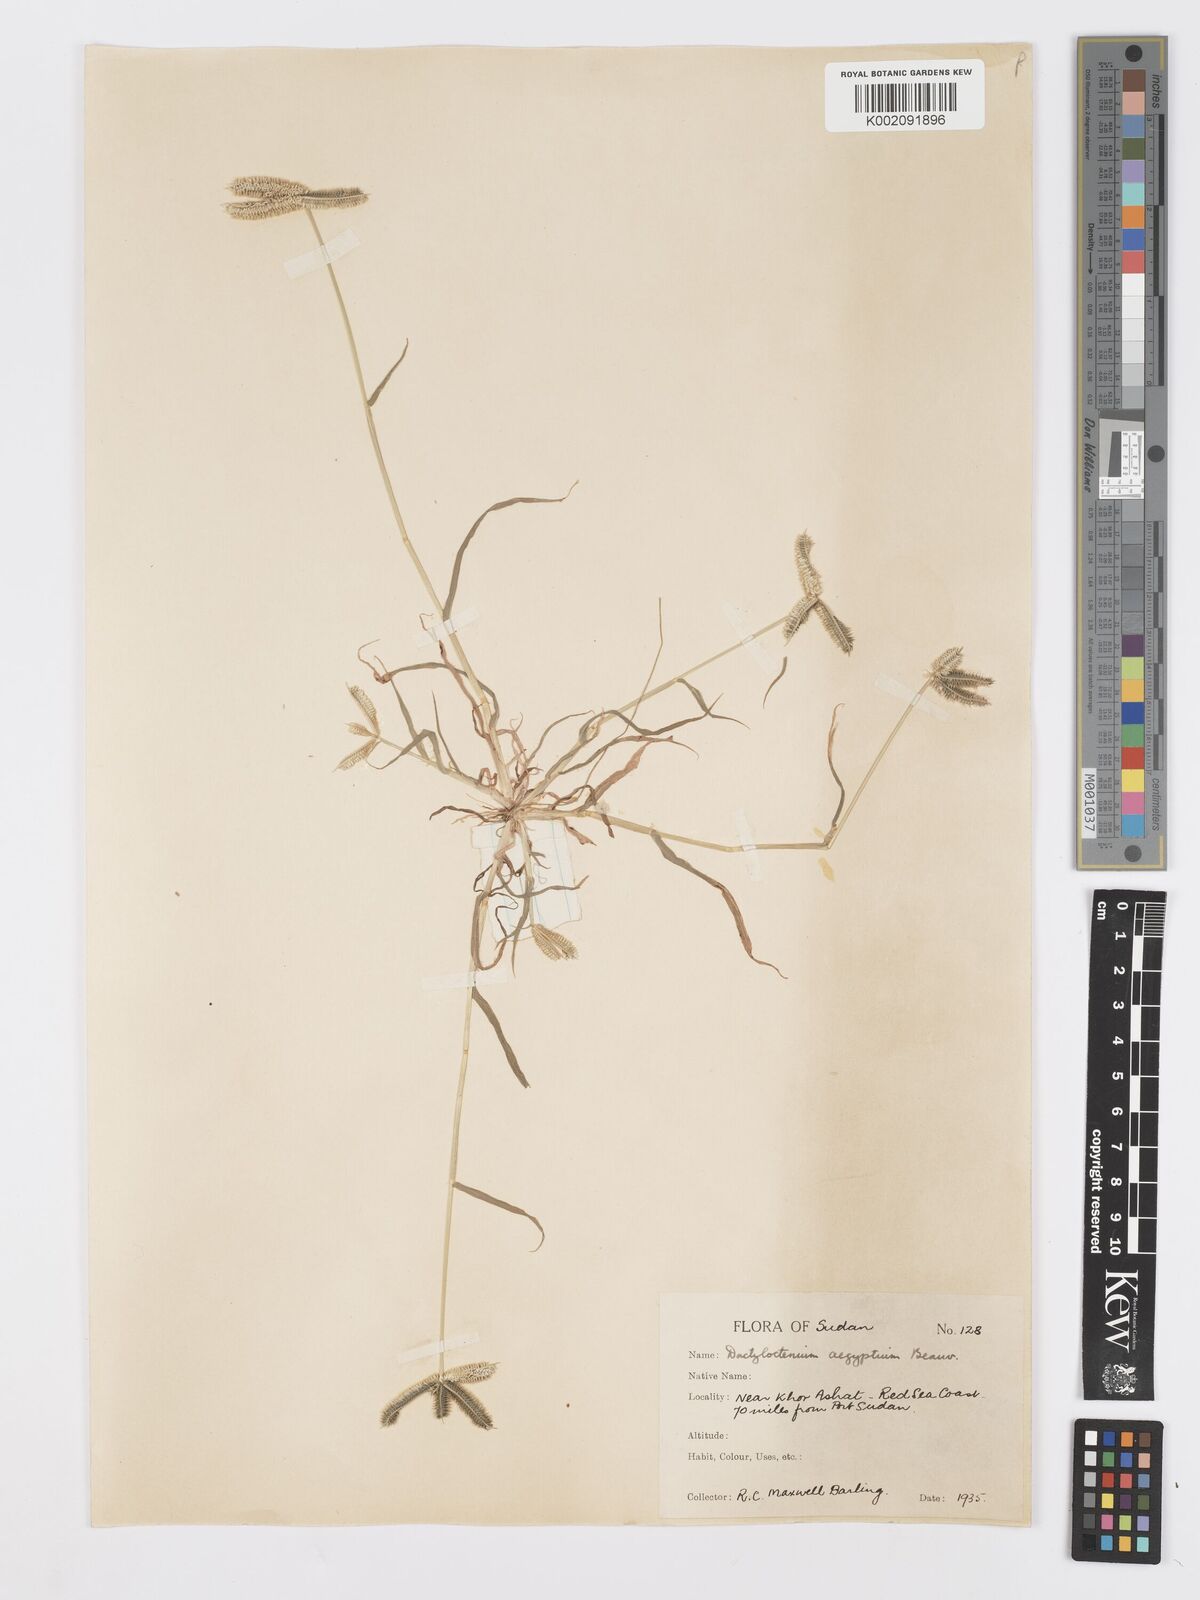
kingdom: Plantae
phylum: Tracheophyta
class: Liliopsida
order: Poales
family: Poaceae
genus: Dactyloctenium
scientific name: Dactyloctenium aegyptium
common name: Egyptian grass
